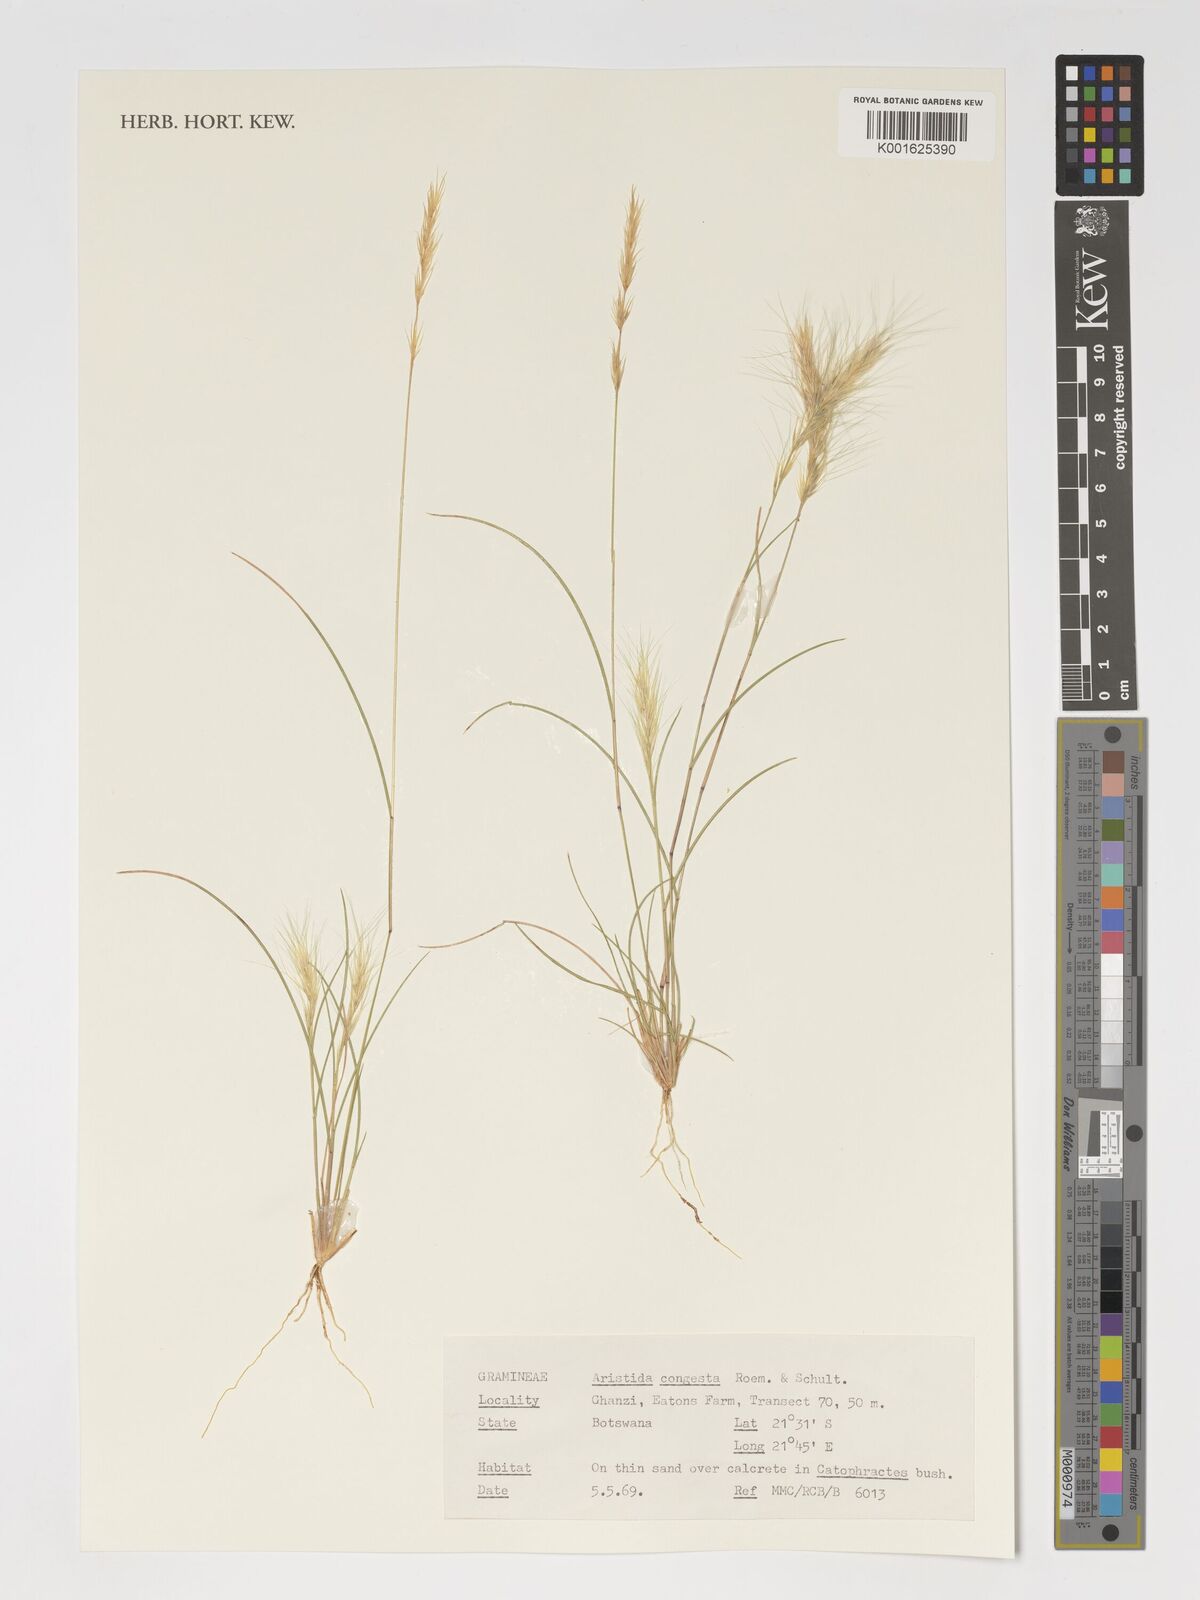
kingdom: Plantae
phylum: Tracheophyta
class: Liliopsida
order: Poales
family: Poaceae
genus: Aristida
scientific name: Aristida congesta
